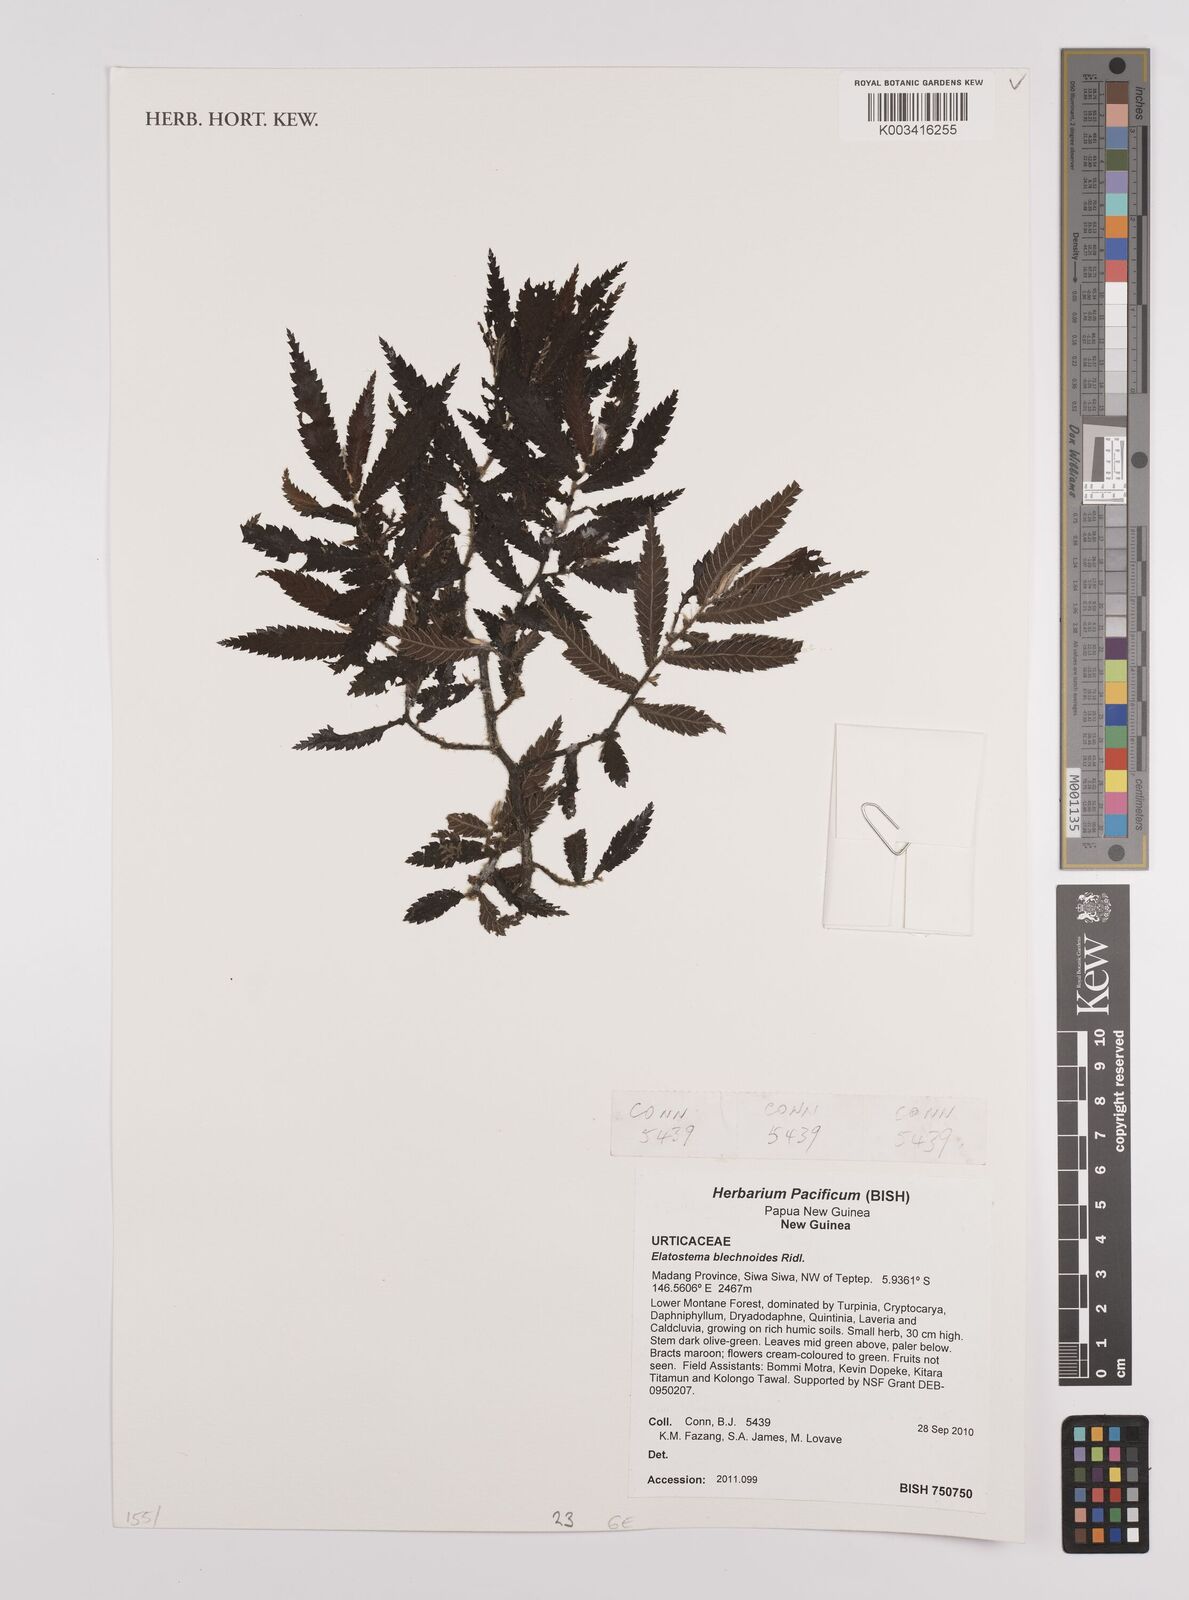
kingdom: Plantae
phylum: Tracheophyta
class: Magnoliopsida
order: Rosales
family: Urticaceae
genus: Elatostema
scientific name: Elatostema blechnoides
